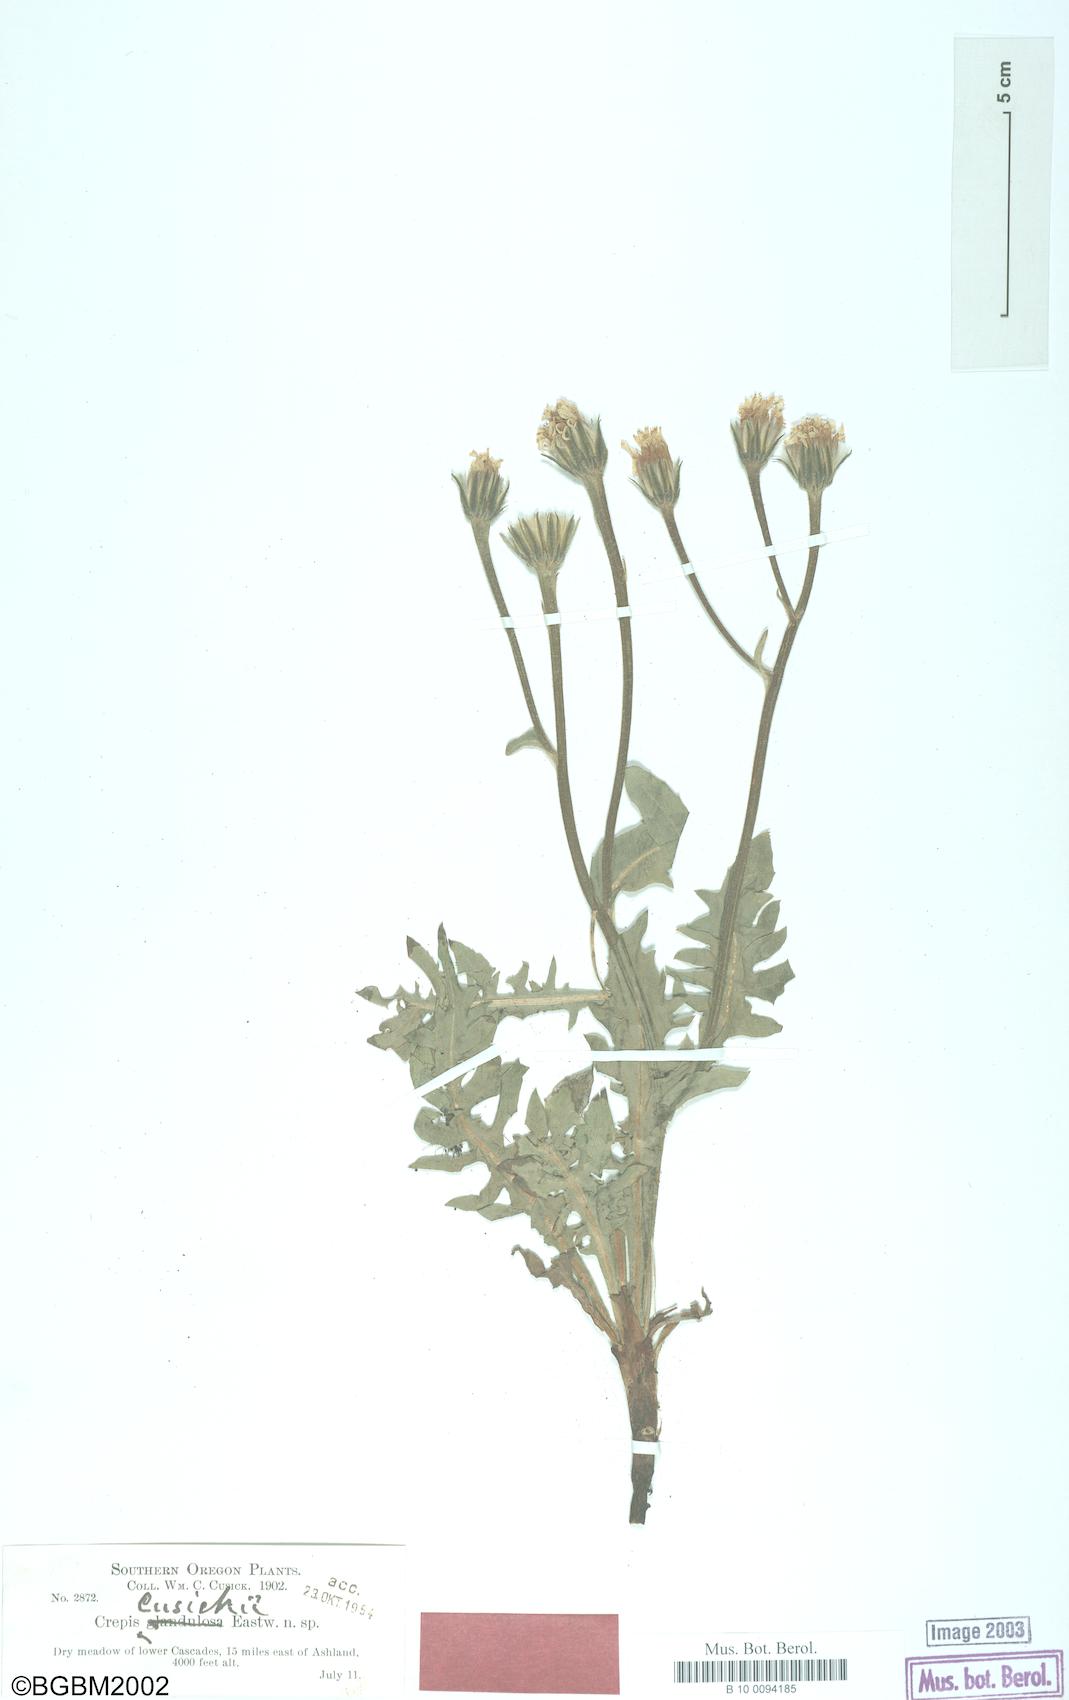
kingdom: Plantae
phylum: Tracheophyta
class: Magnoliopsida
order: Asterales
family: Asteraceae
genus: Crepis
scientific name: Crepis bakeri
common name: Baker's hawkbeard
